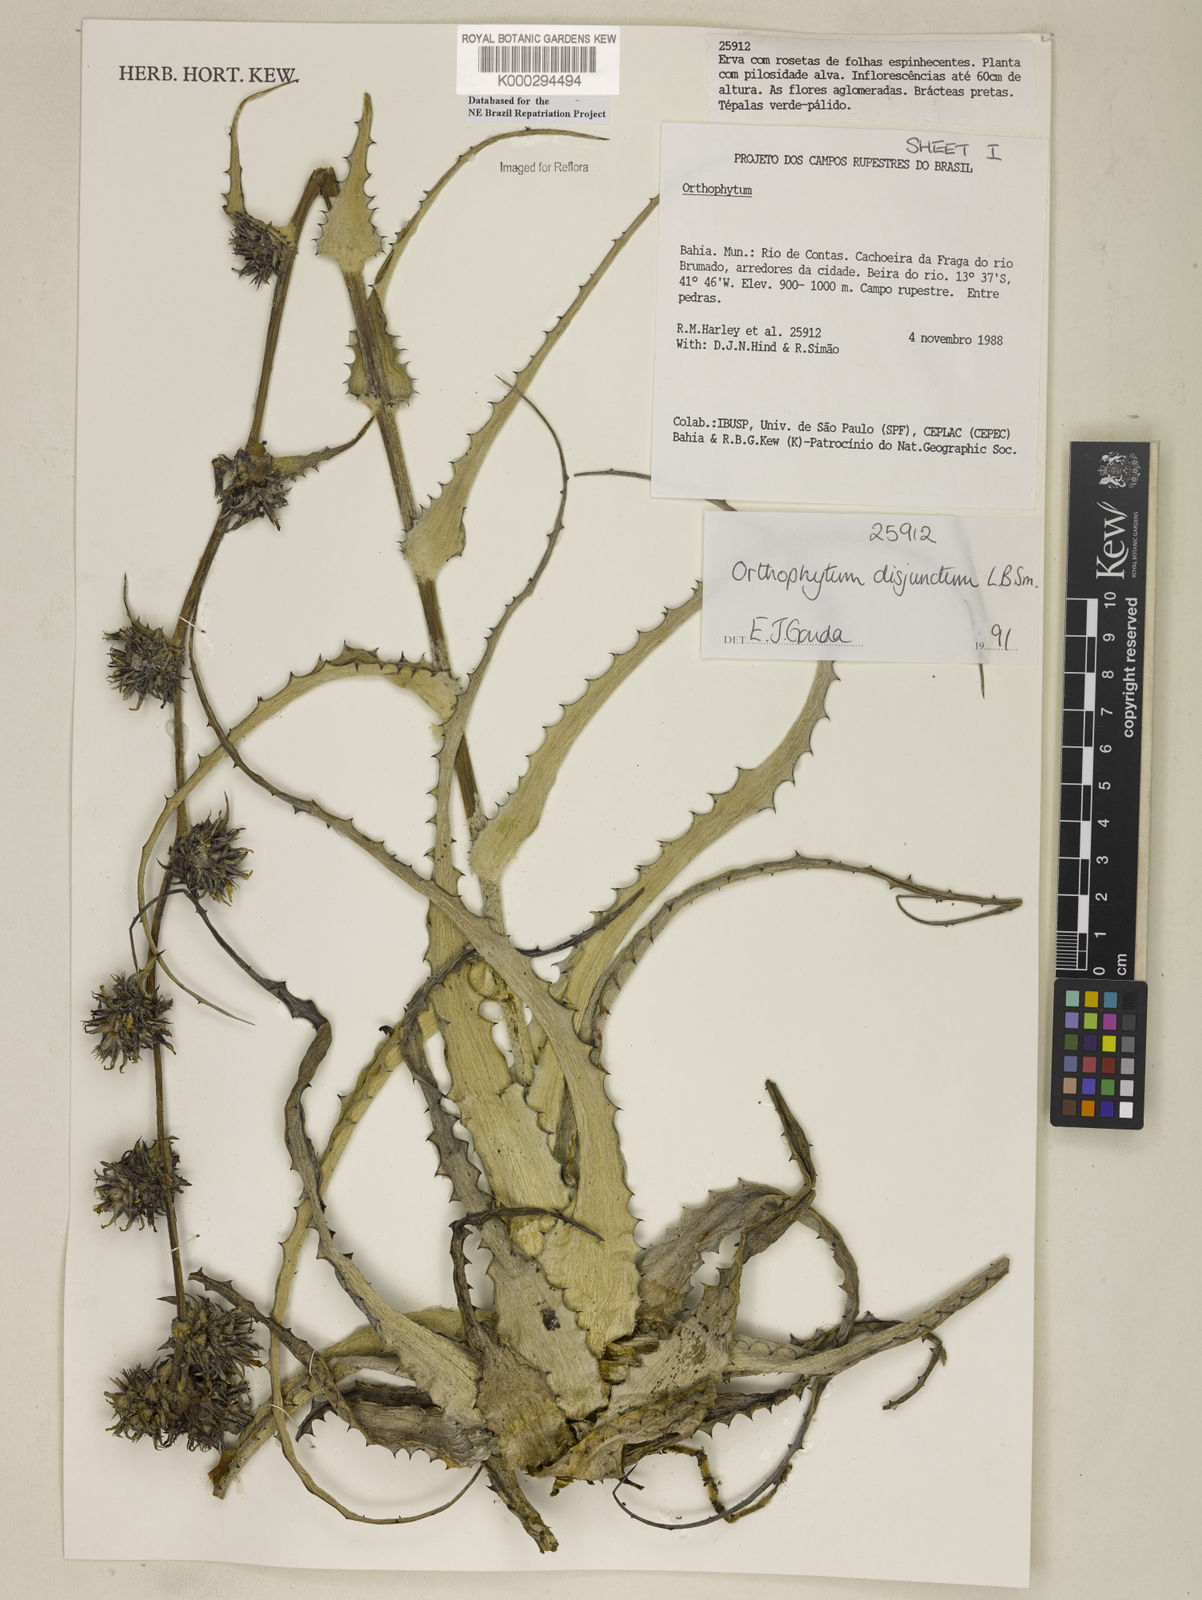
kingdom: Plantae
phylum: Tracheophyta
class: Liliopsida
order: Poales
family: Bromeliaceae
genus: Orthophytum
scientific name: Orthophytum disjunctum
